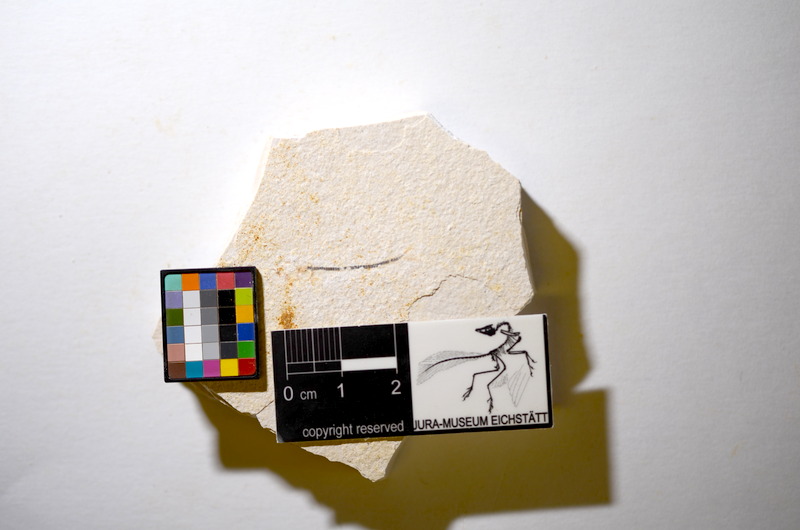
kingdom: Animalia
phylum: Chordata
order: Salmoniformes
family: Orthogonikleithridae
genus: Orthogonikleithrus
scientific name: Orthogonikleithrus hoelli
